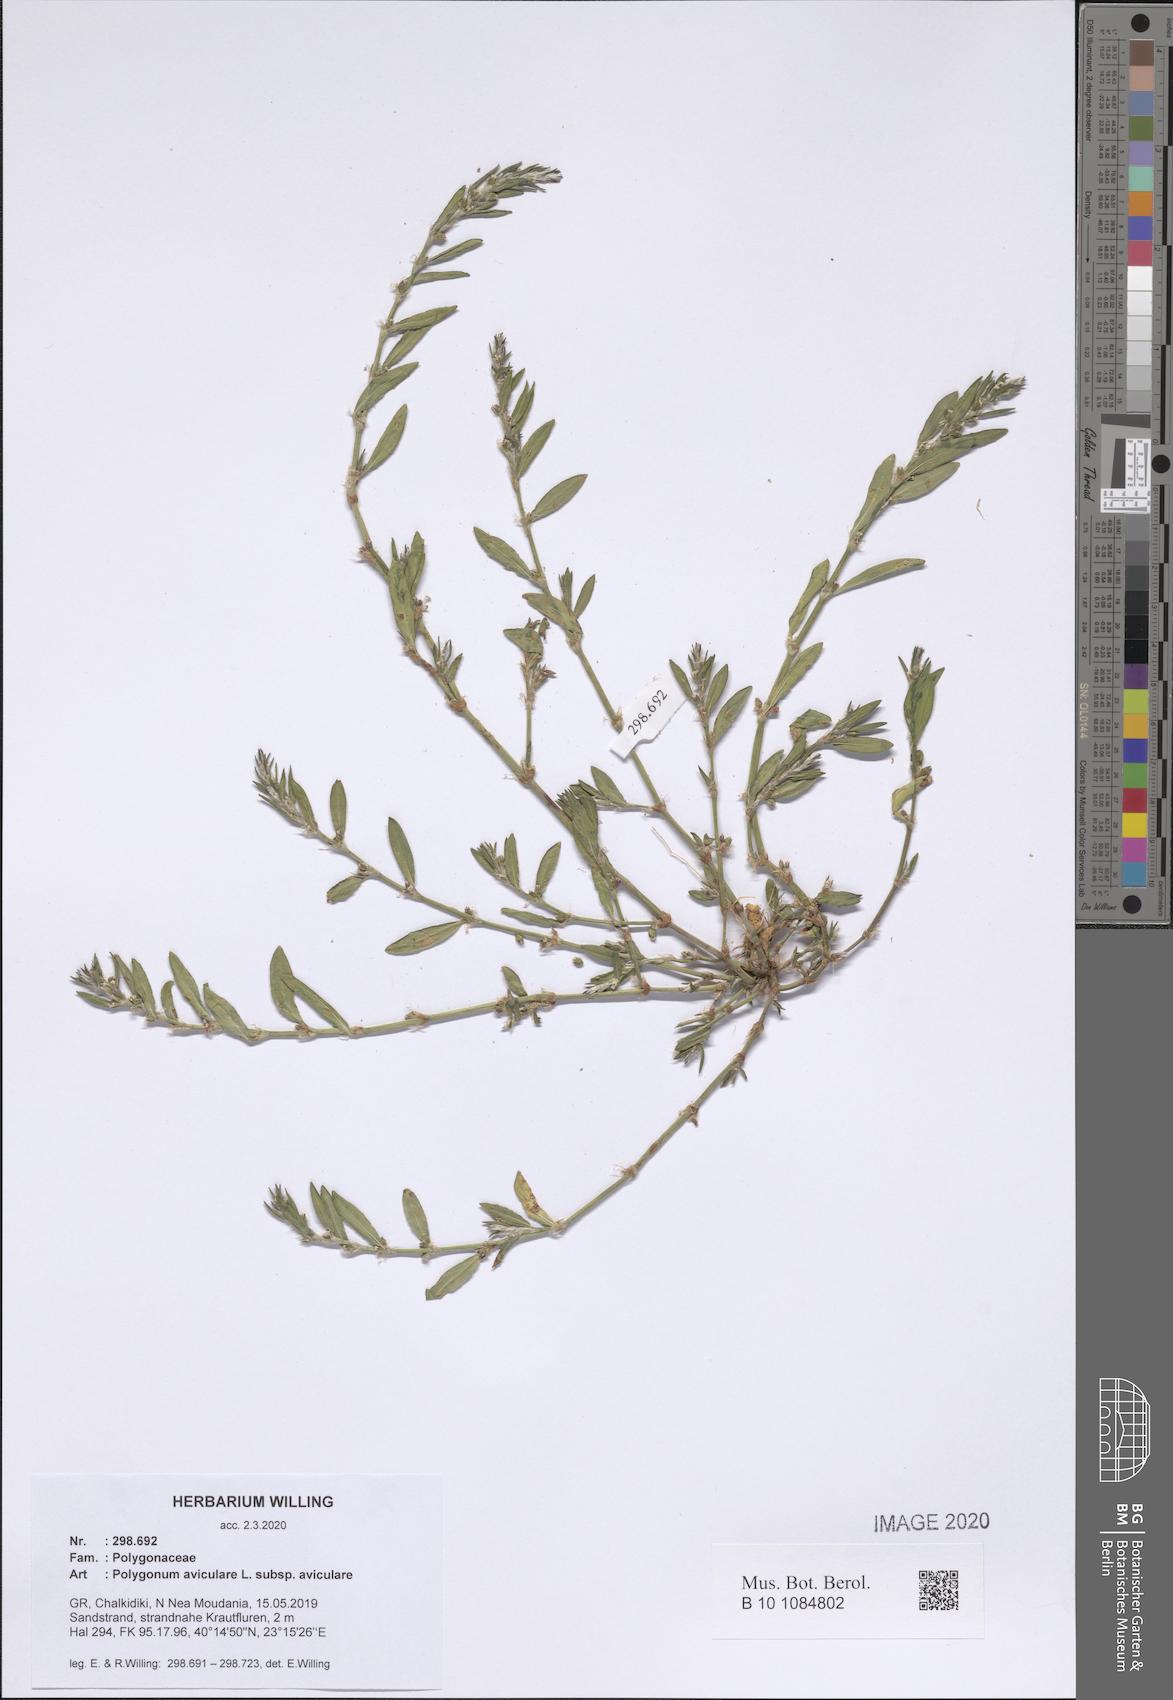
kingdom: Plantae
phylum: Tracheophyta
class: Magnoliopsida
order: Caryophyllales
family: Polygonaceae
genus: Polygonum
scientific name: Polygonum aviculare
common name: Prostrate knotweed
